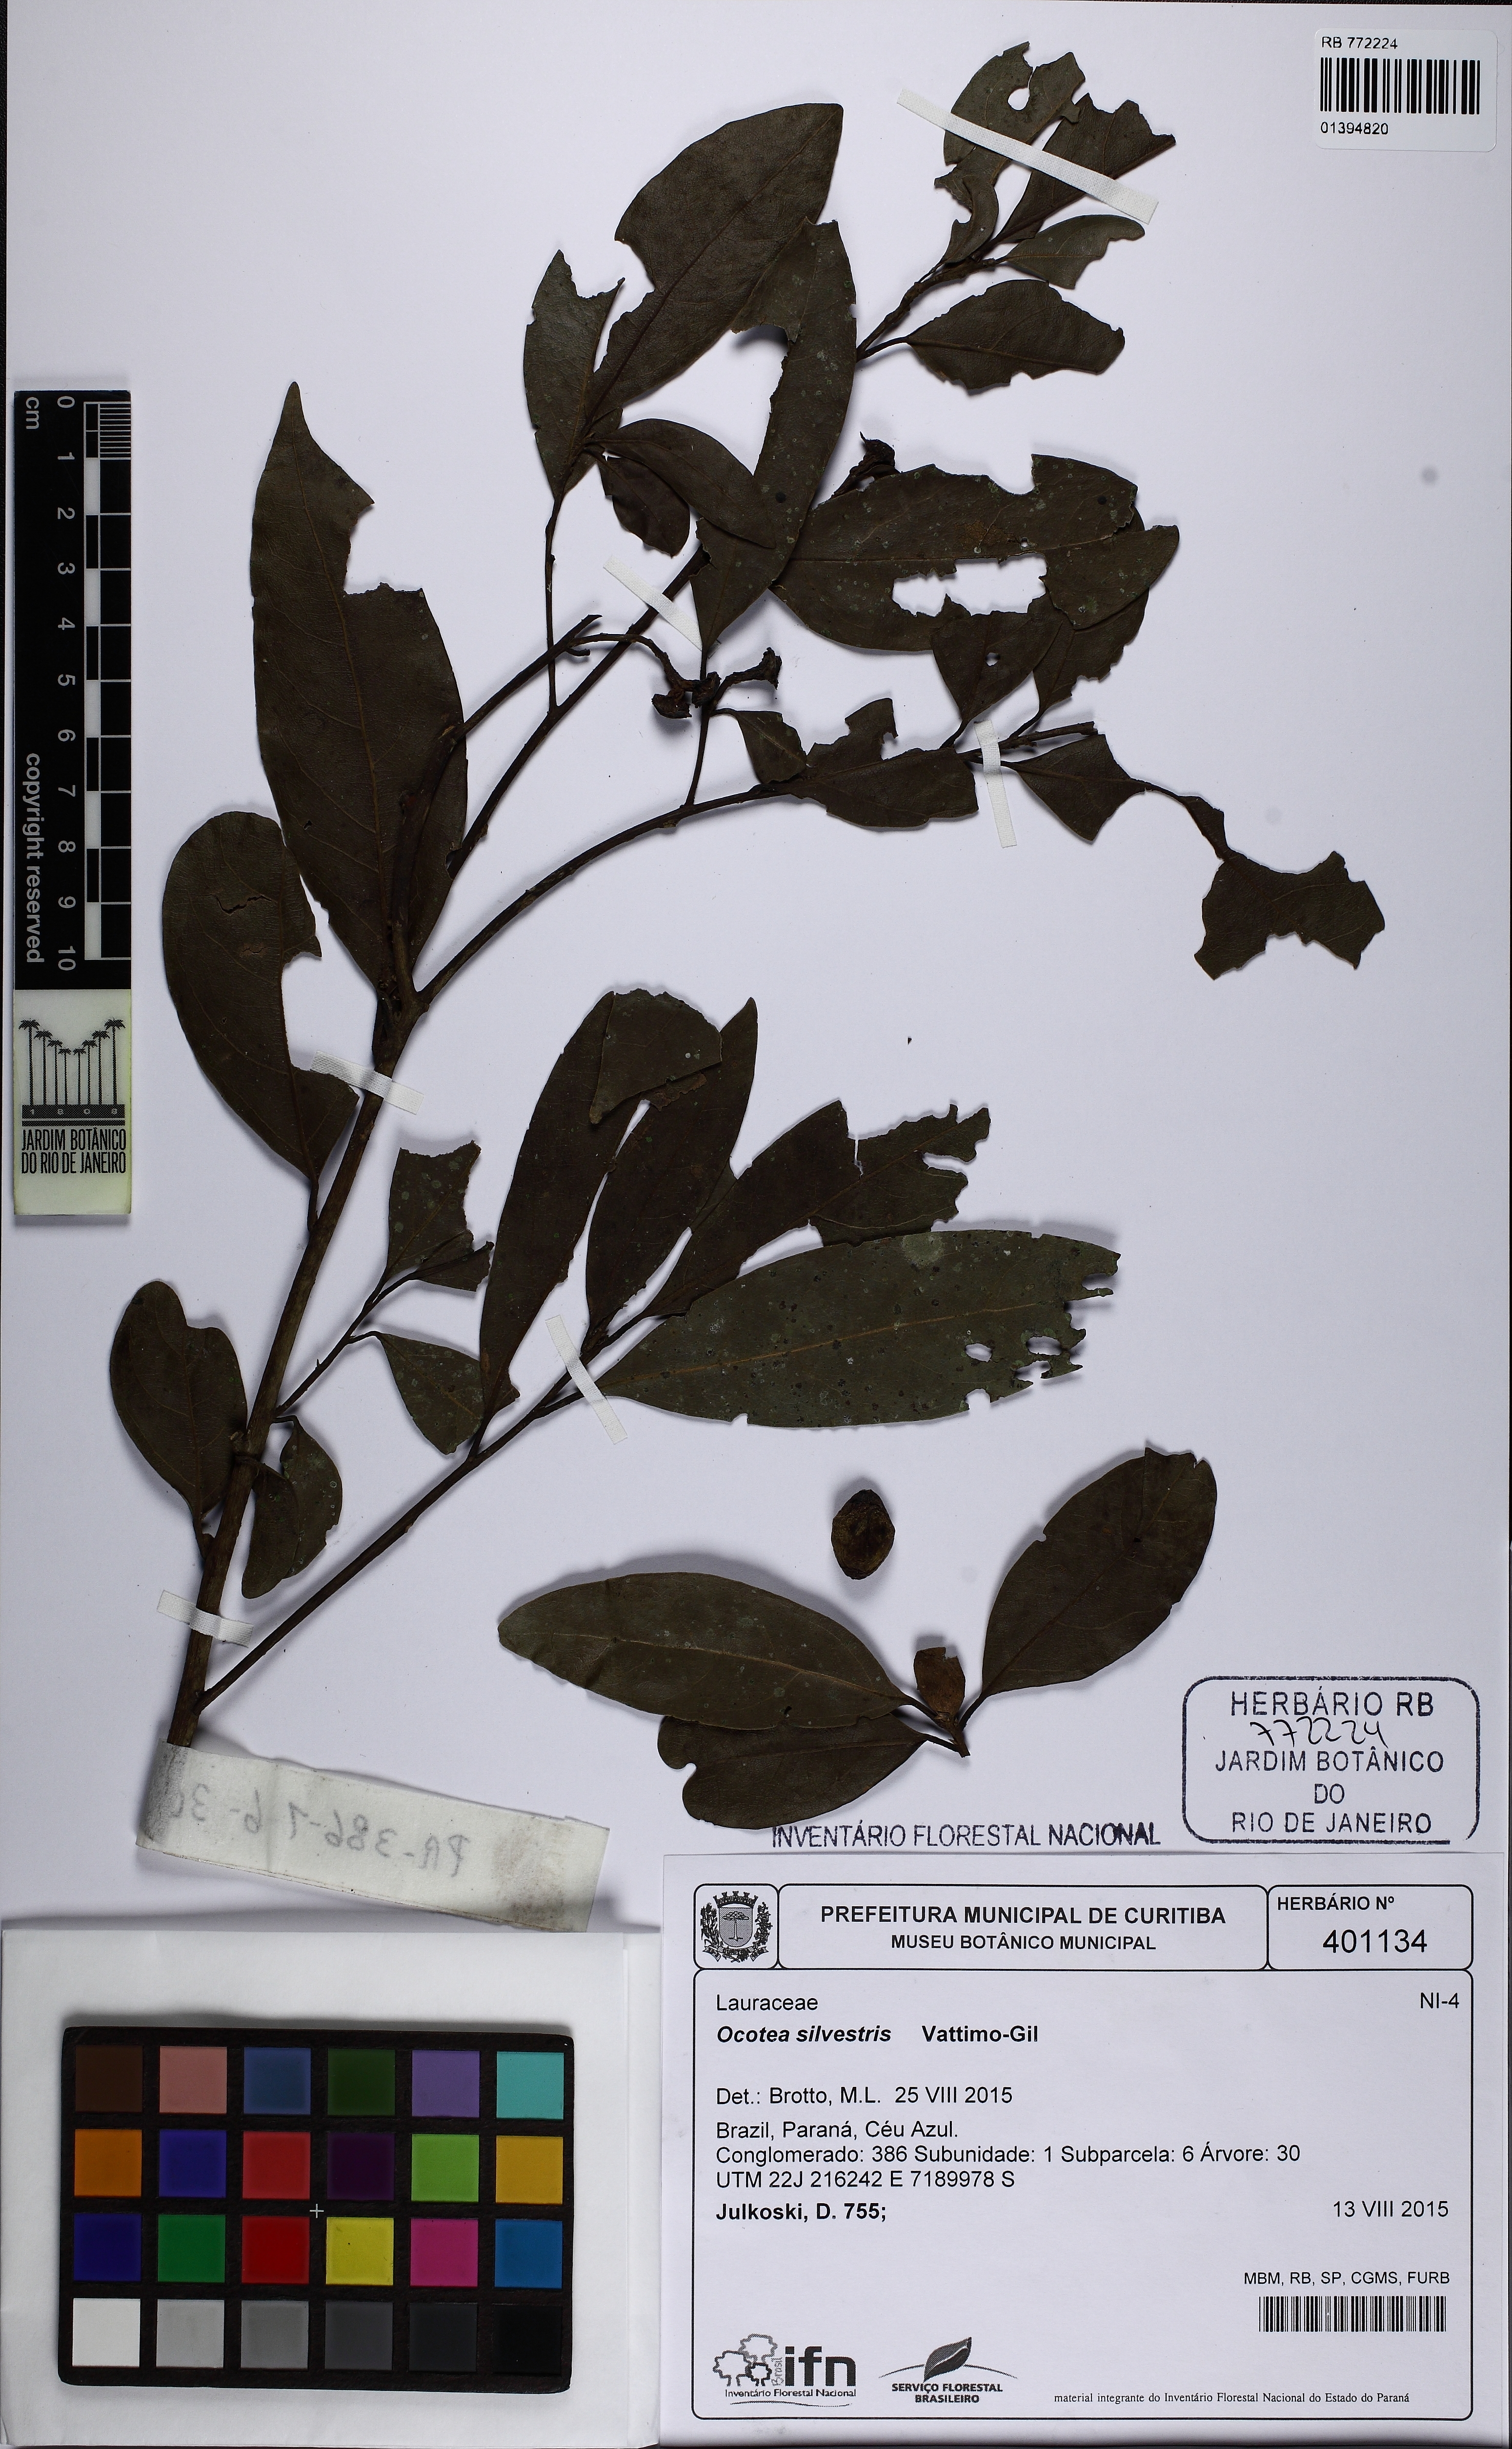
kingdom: Plantae
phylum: Tracheophyta
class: Magnoliopsida
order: Laurales
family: Lauraceae
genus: Ocotea
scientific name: Ocotea silvestris
